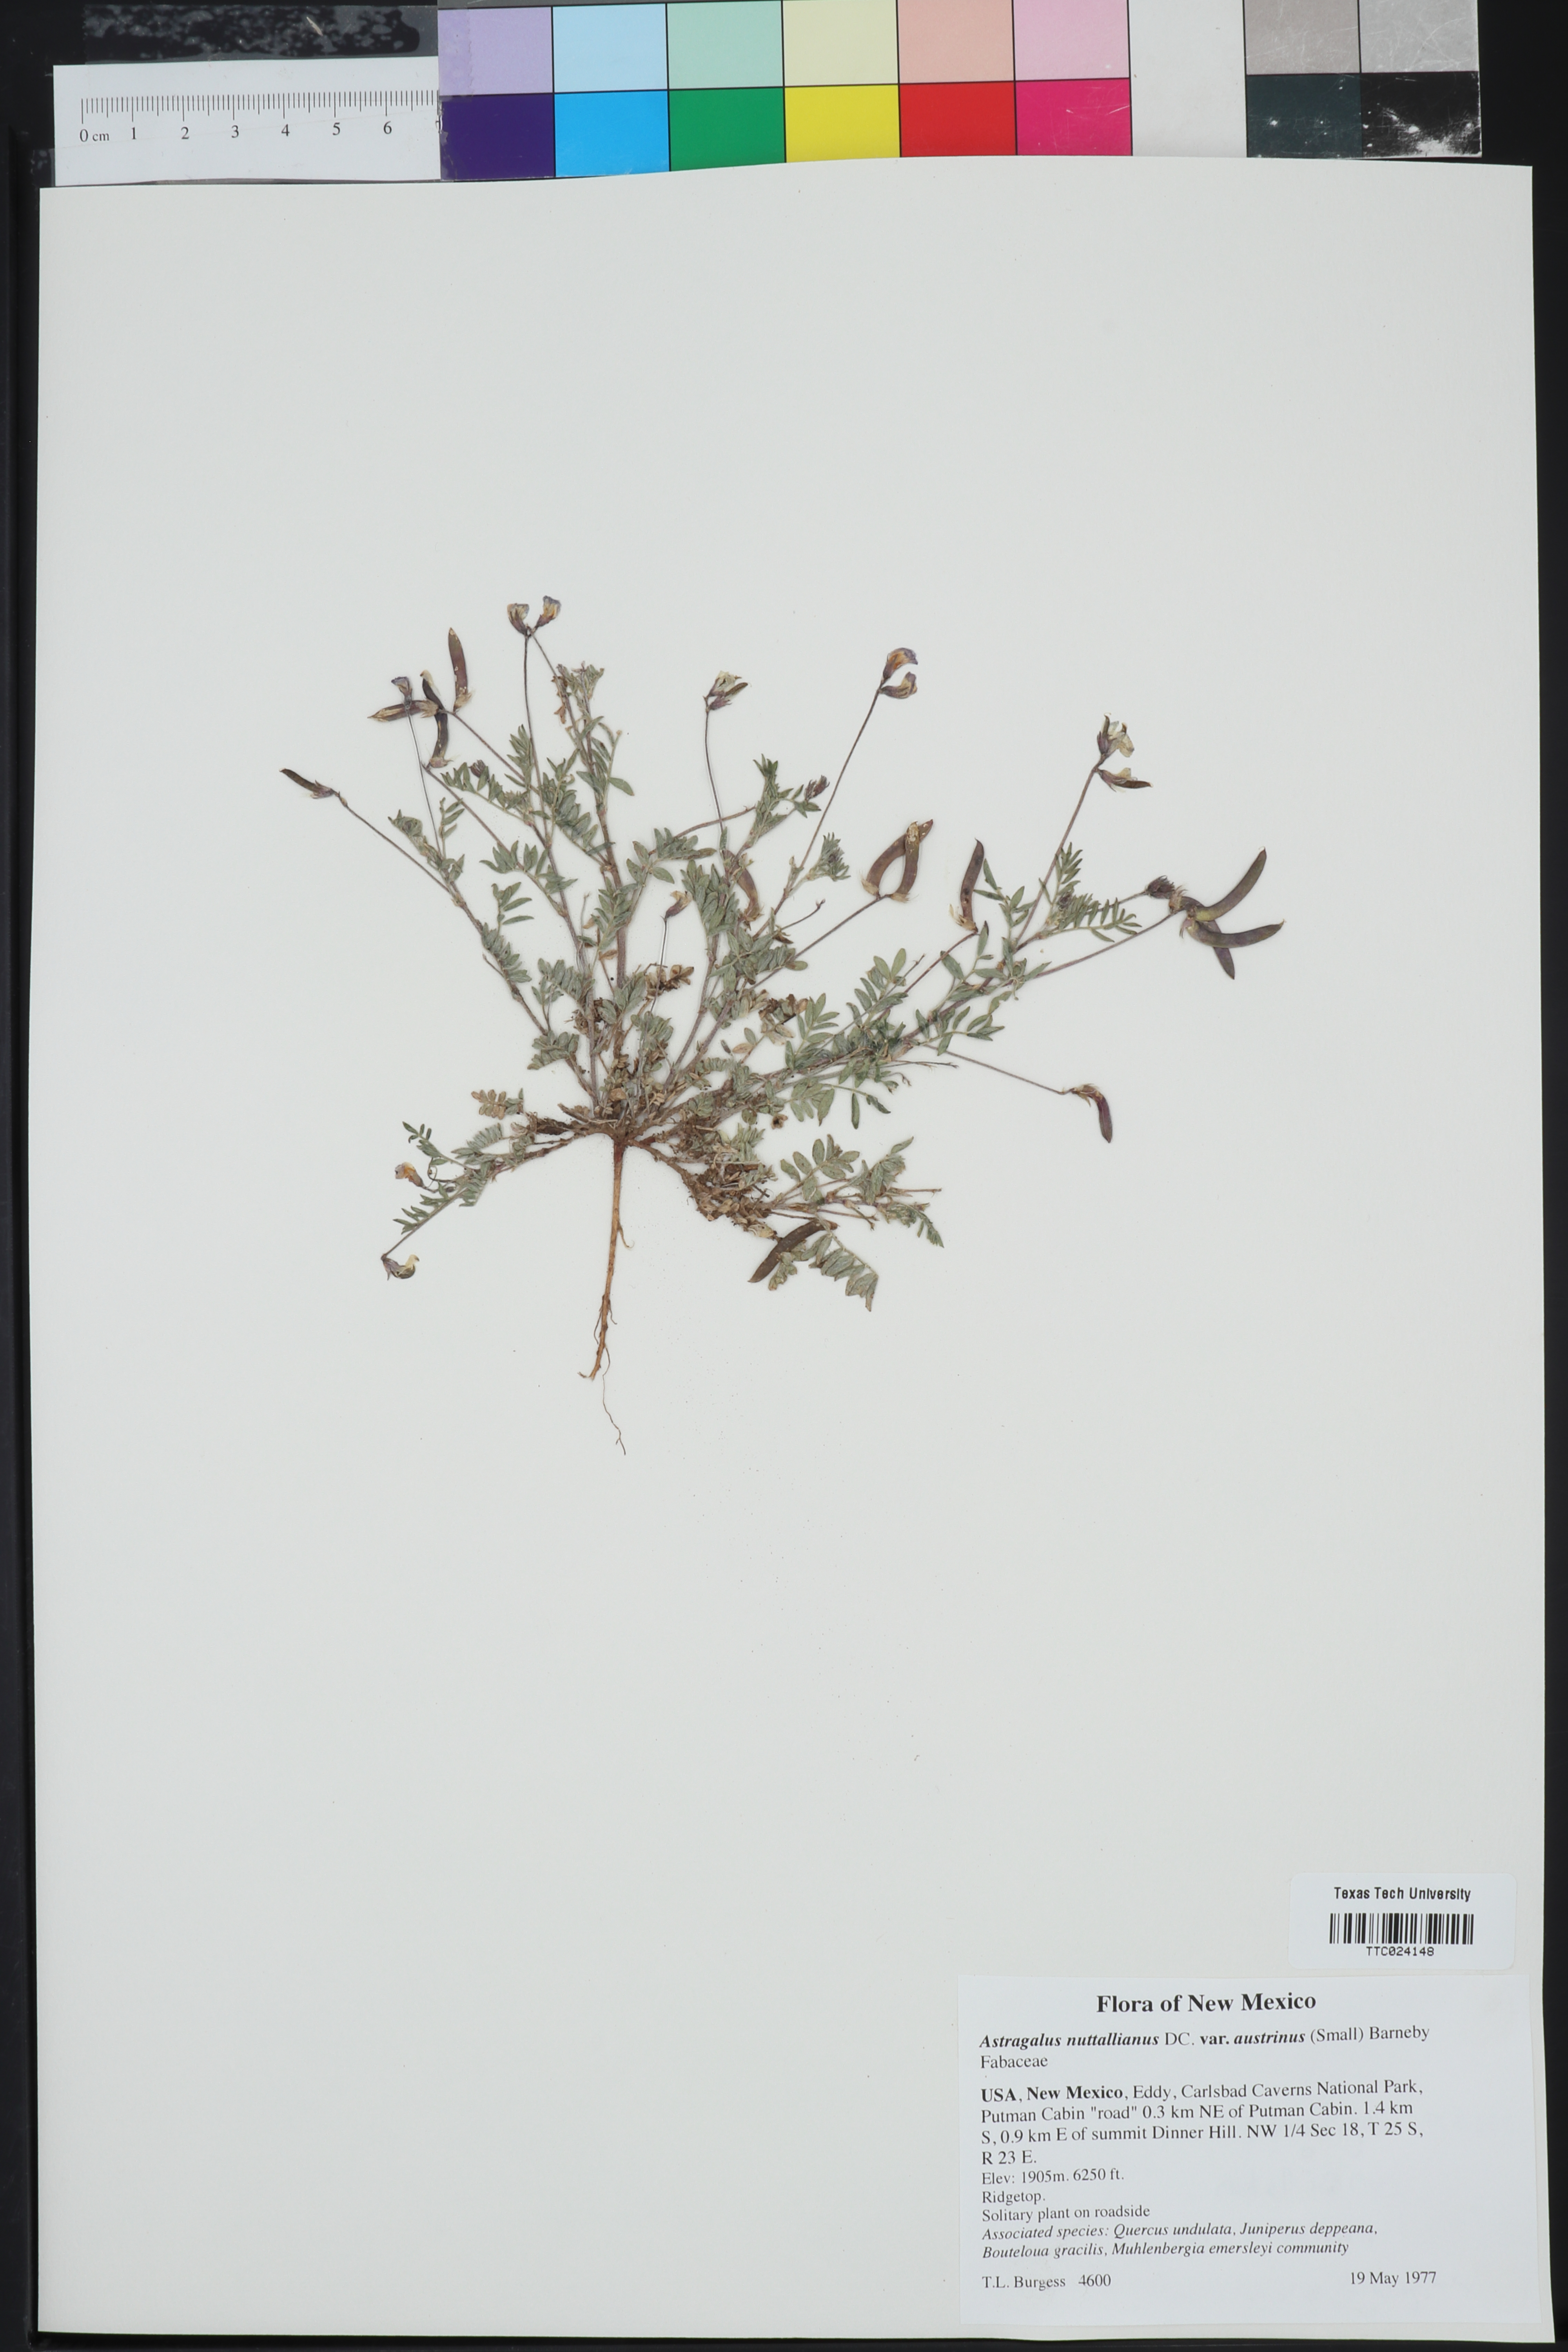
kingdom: Plantae
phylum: Tracheophyta
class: Magnoliopsida
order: Fabales
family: Fabaceae
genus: Astragalus
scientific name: Astragalus nuttallianus
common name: Smallflowered milkvetch
